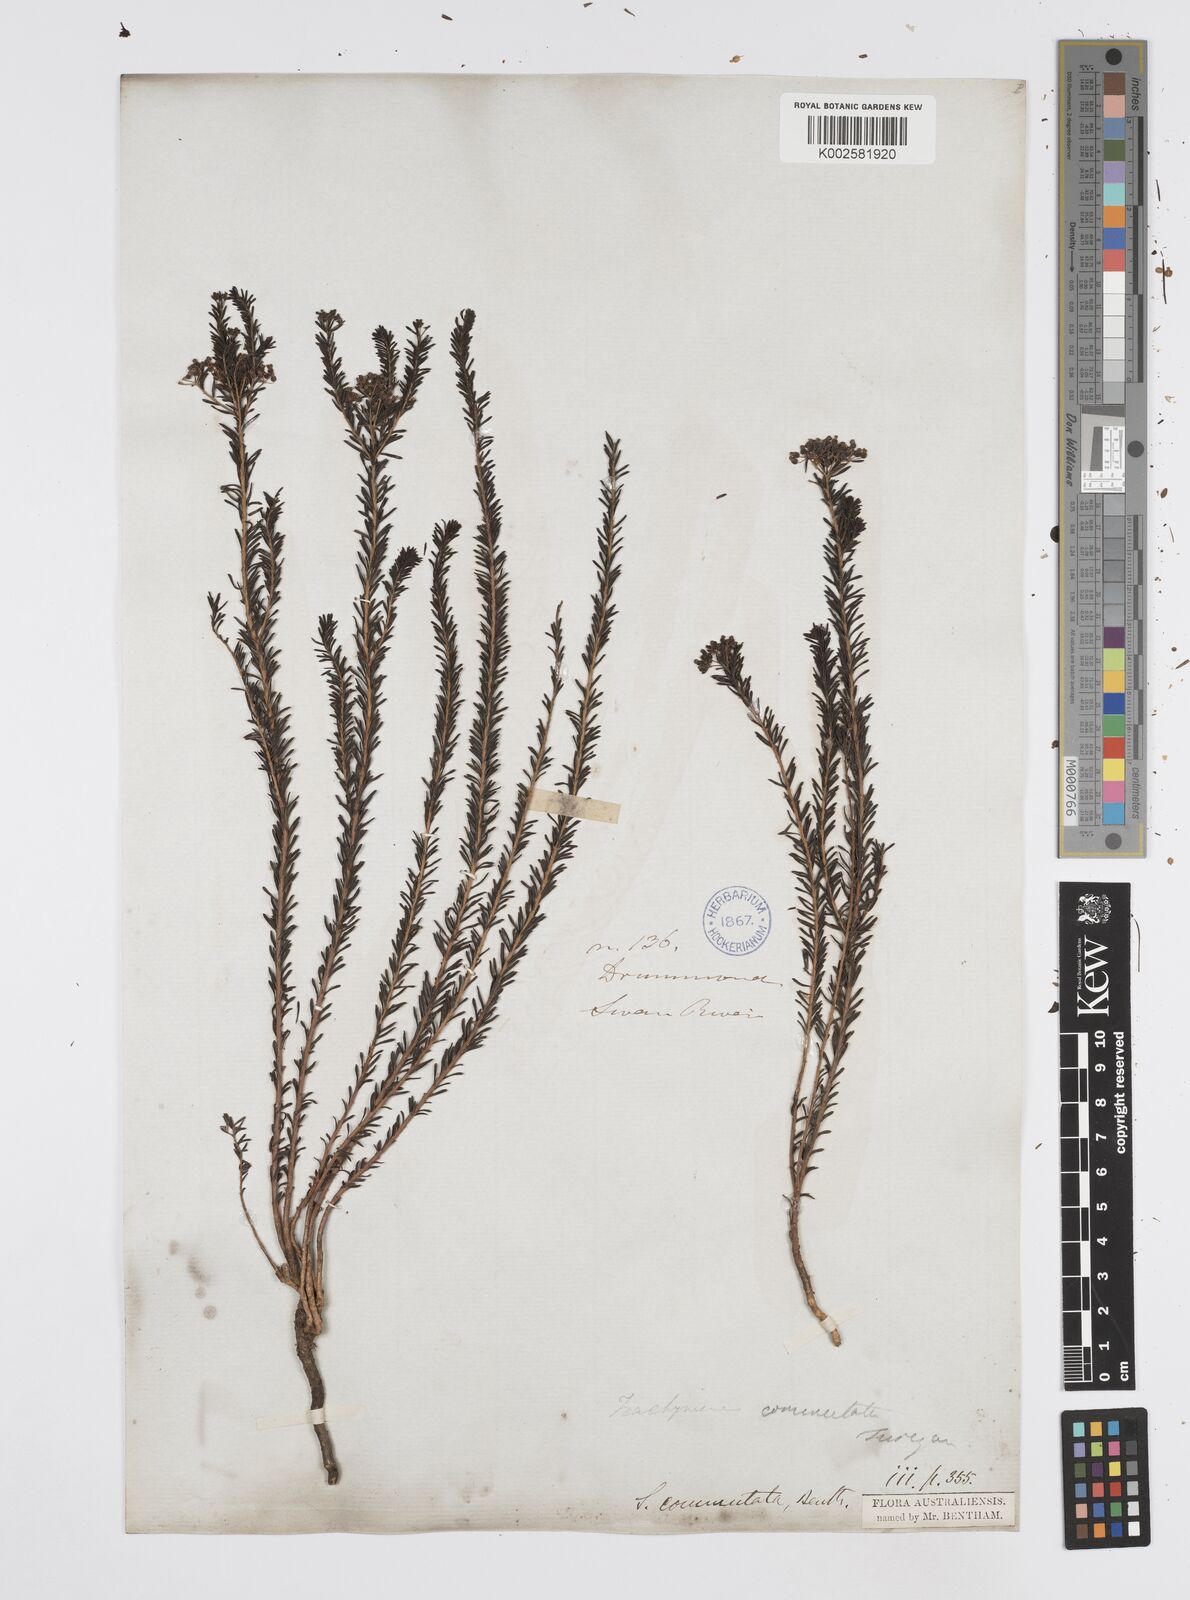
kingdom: Plantae
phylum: Tracheophyta
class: Magnoliopsida
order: Apiales
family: Apiaceae
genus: Platysace
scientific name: Platysace commutata
